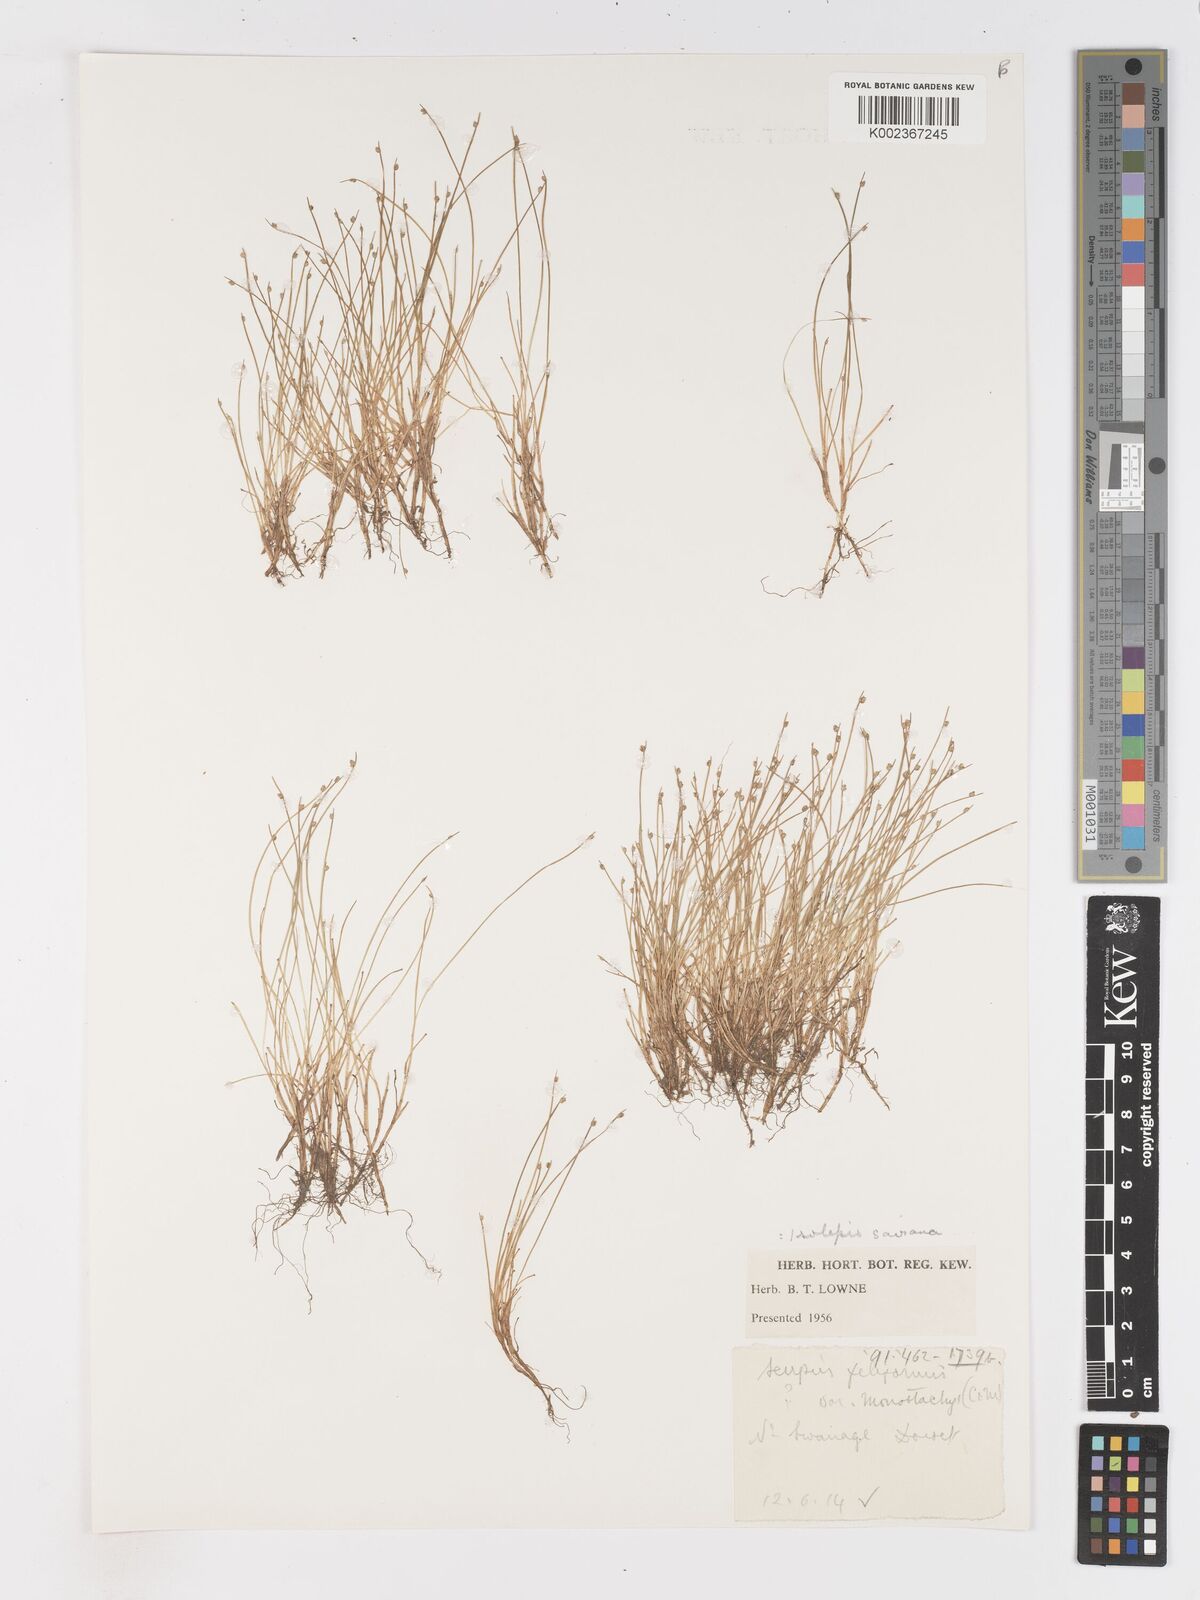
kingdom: Plantae
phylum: Tracheophyta
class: Liliopsida
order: Poales
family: Cyperaceae
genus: Isolepis
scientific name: Isolepis cernua
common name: Slender club-rush
